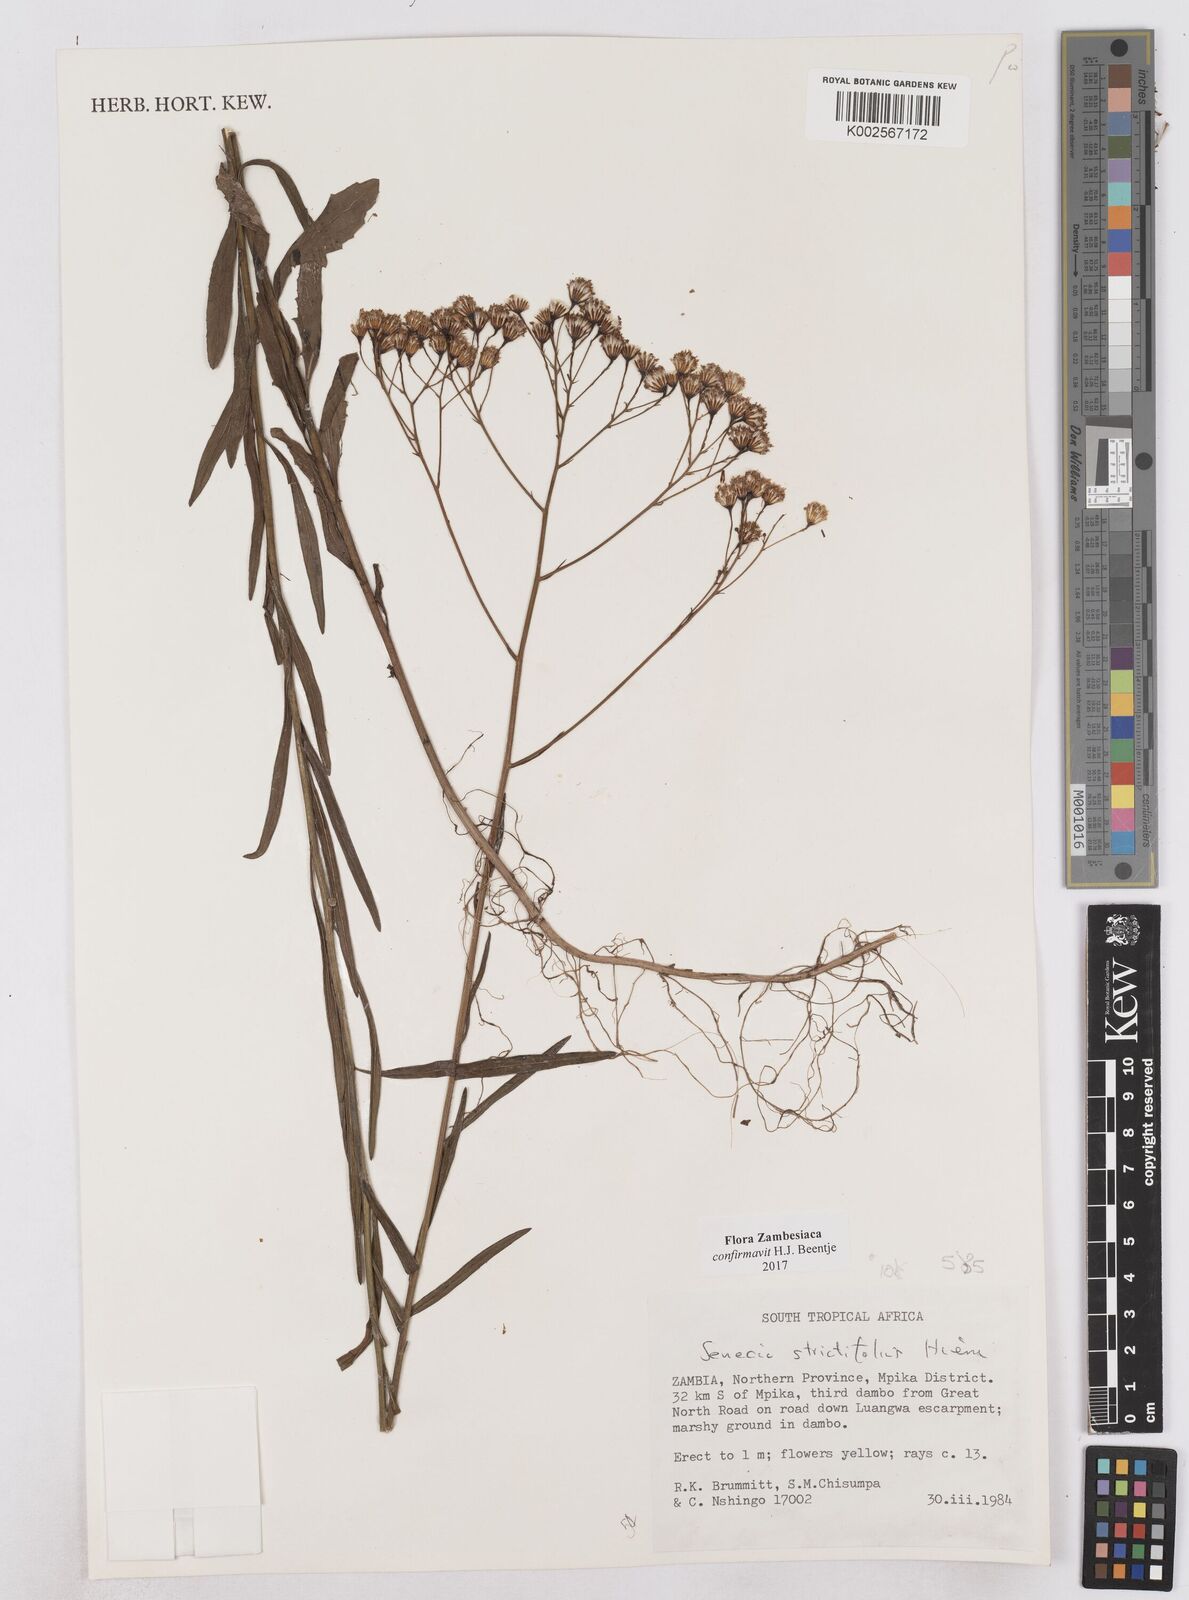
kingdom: Plantae
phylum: Tracheophyta
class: Magnoliopsida
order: Asterales
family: Asteraceae
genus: Senecio
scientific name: Senecio strictifolius
